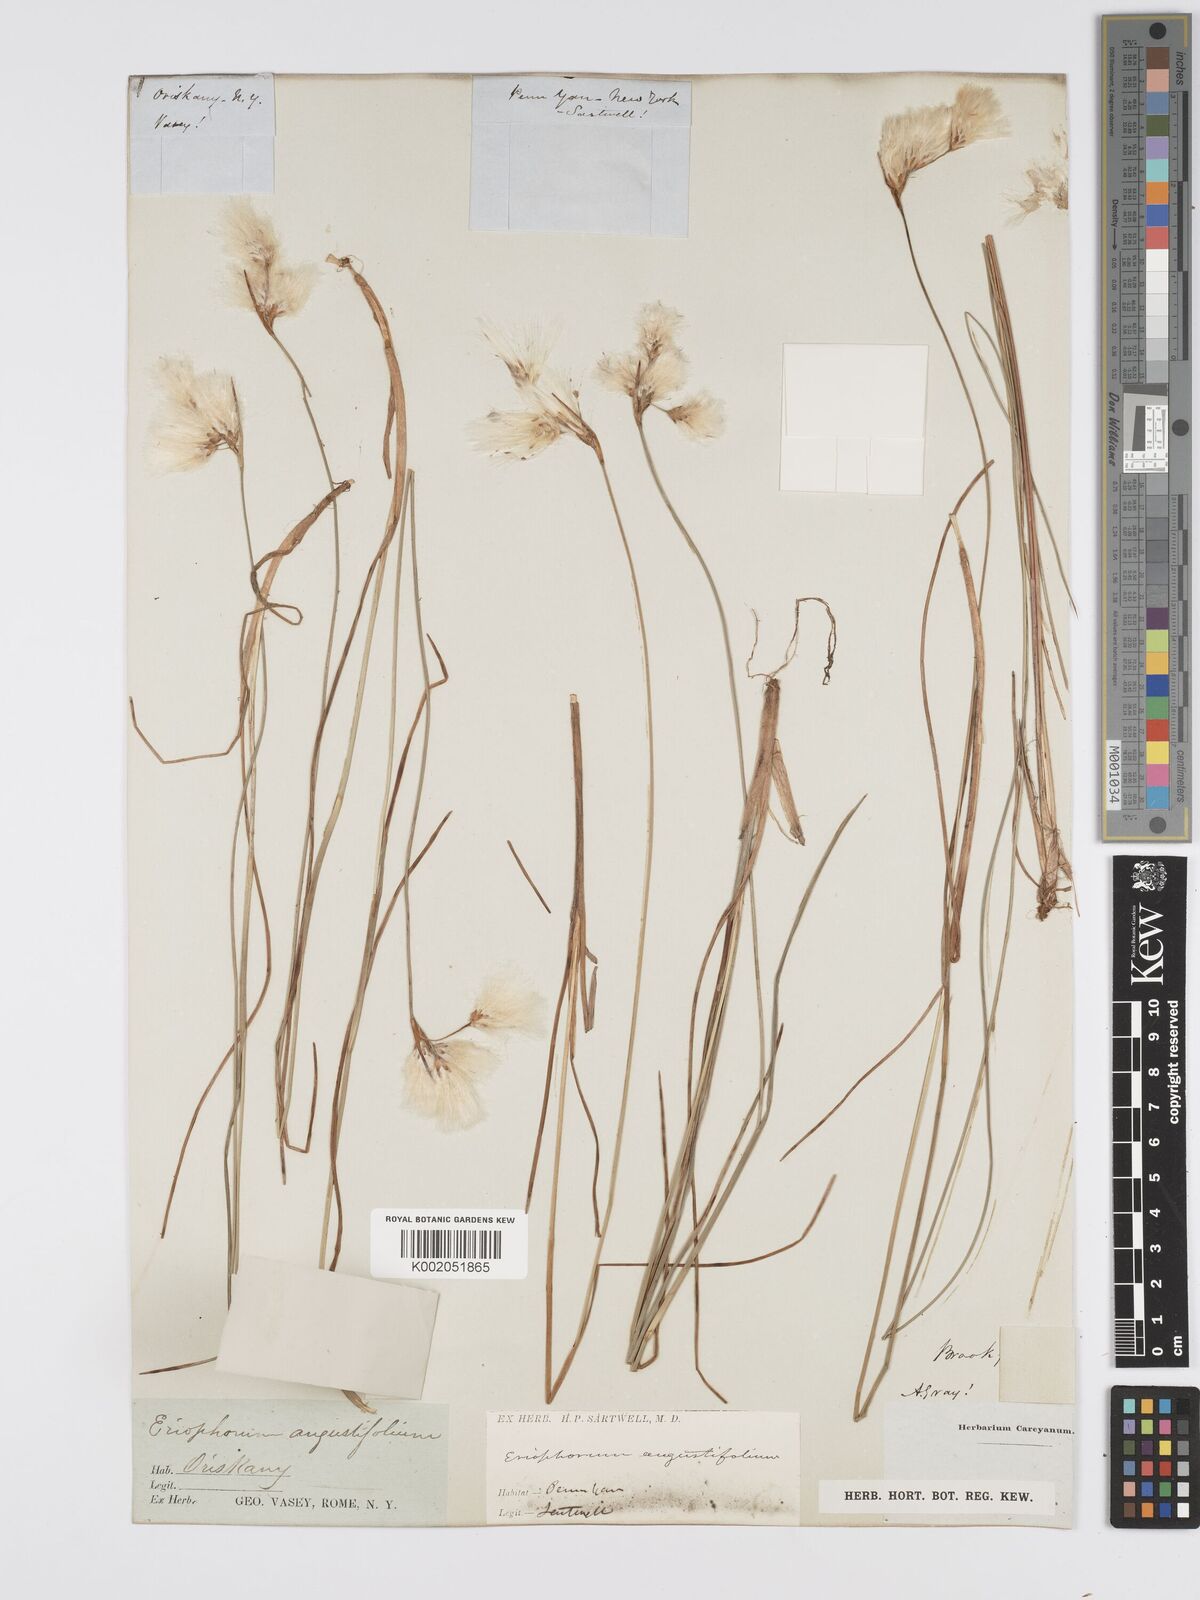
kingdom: Plantae
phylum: Tracheophyta
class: Liliopsida
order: Poales
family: Cyperaceae
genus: Eriophorum
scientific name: Eriophorum gracile
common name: Slender cottongrass
